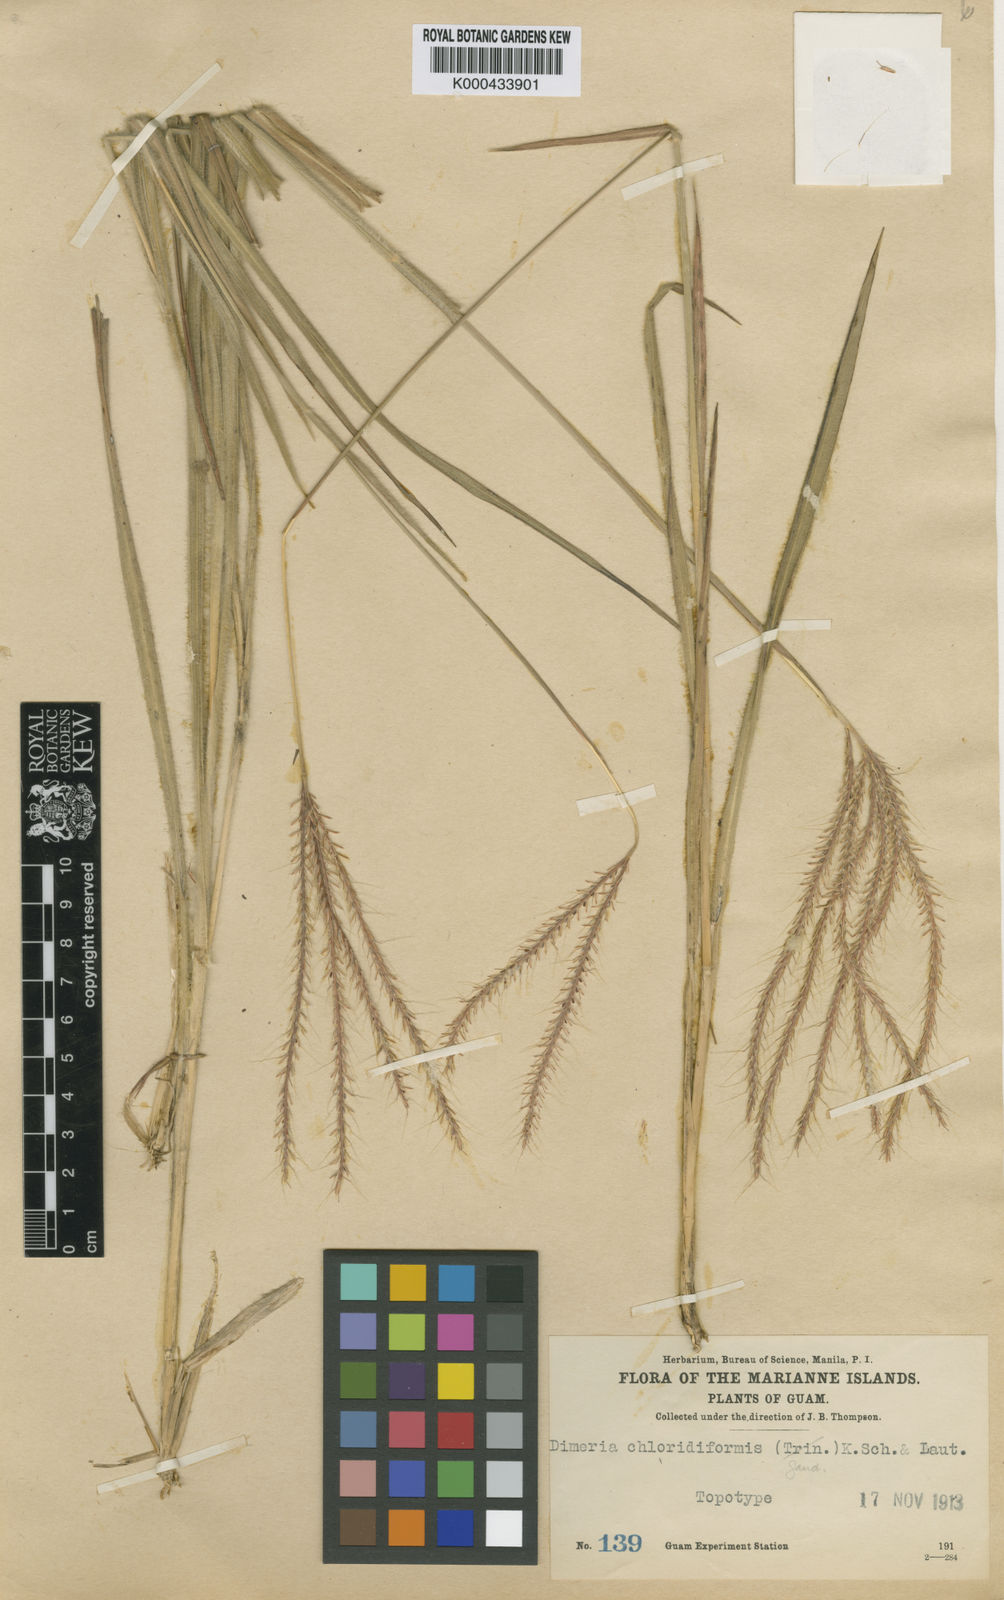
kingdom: Plantae
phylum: Tracheophyta
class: Liliopsida
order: Poales
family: Poaceae
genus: Dimeria
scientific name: Dimeria chloridiformis
